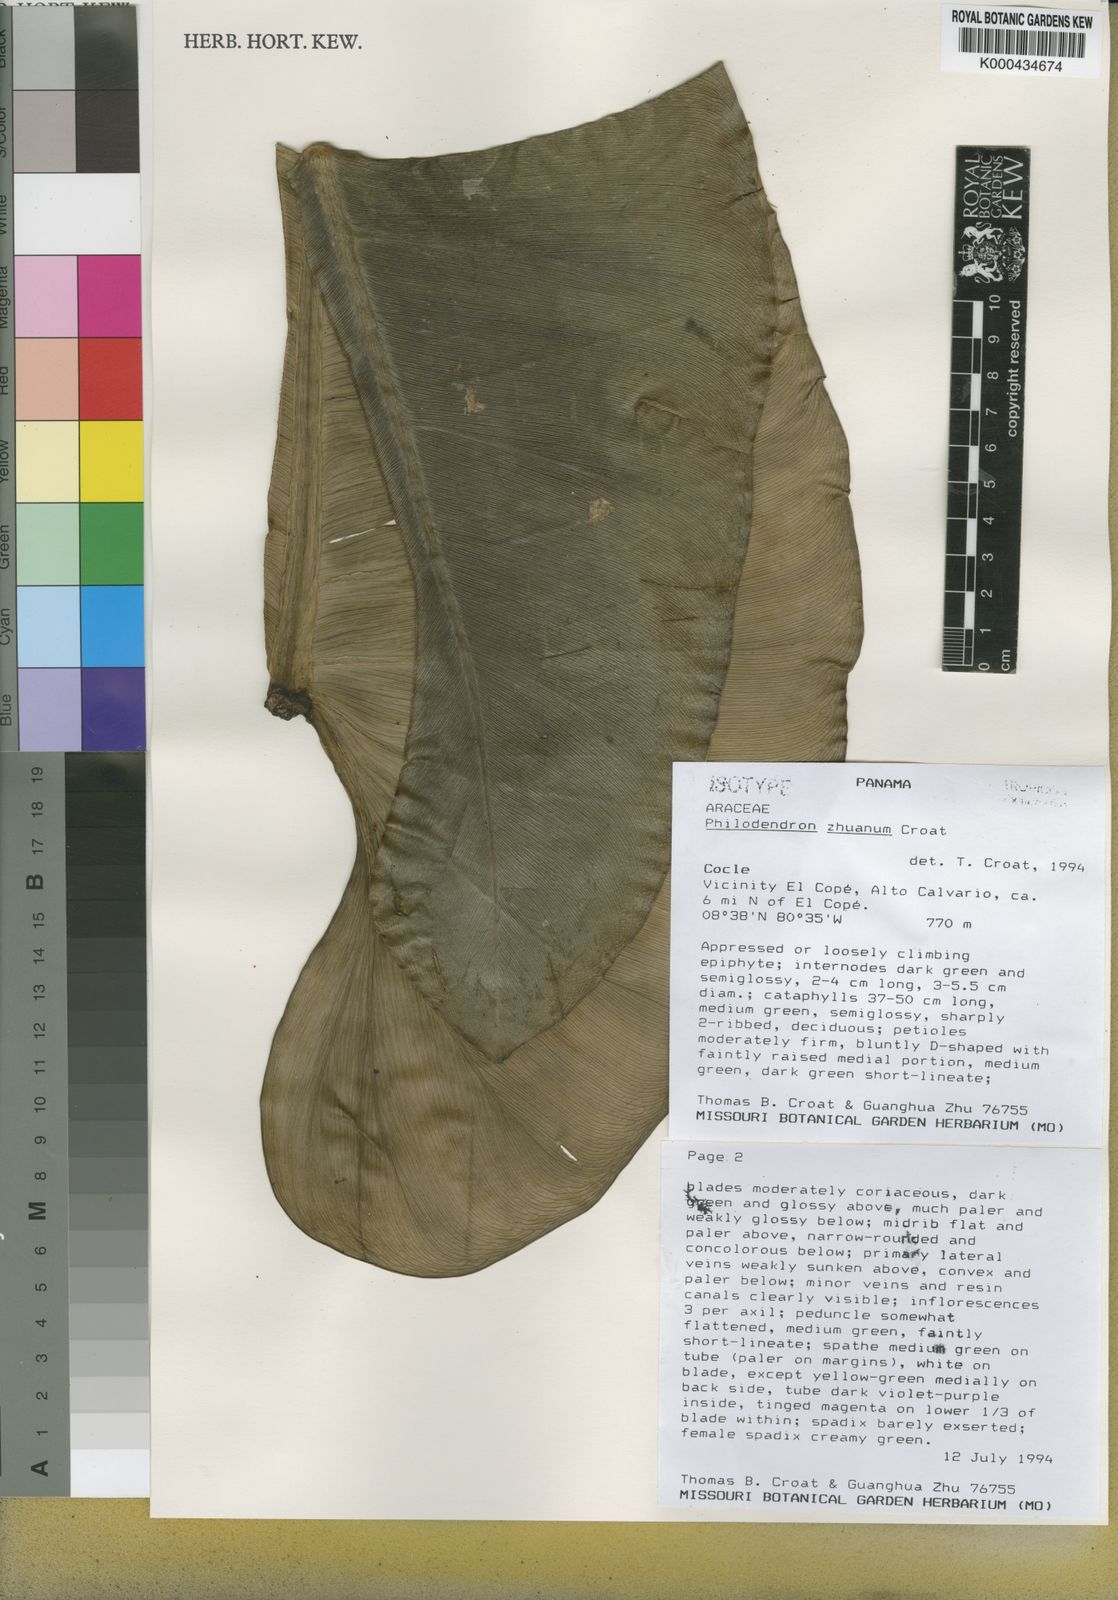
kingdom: Plantae
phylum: Tracheophyta
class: Liliopsida
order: Alismatales
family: Araceae
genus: Philodendron
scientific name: Philodendron zhuanum
